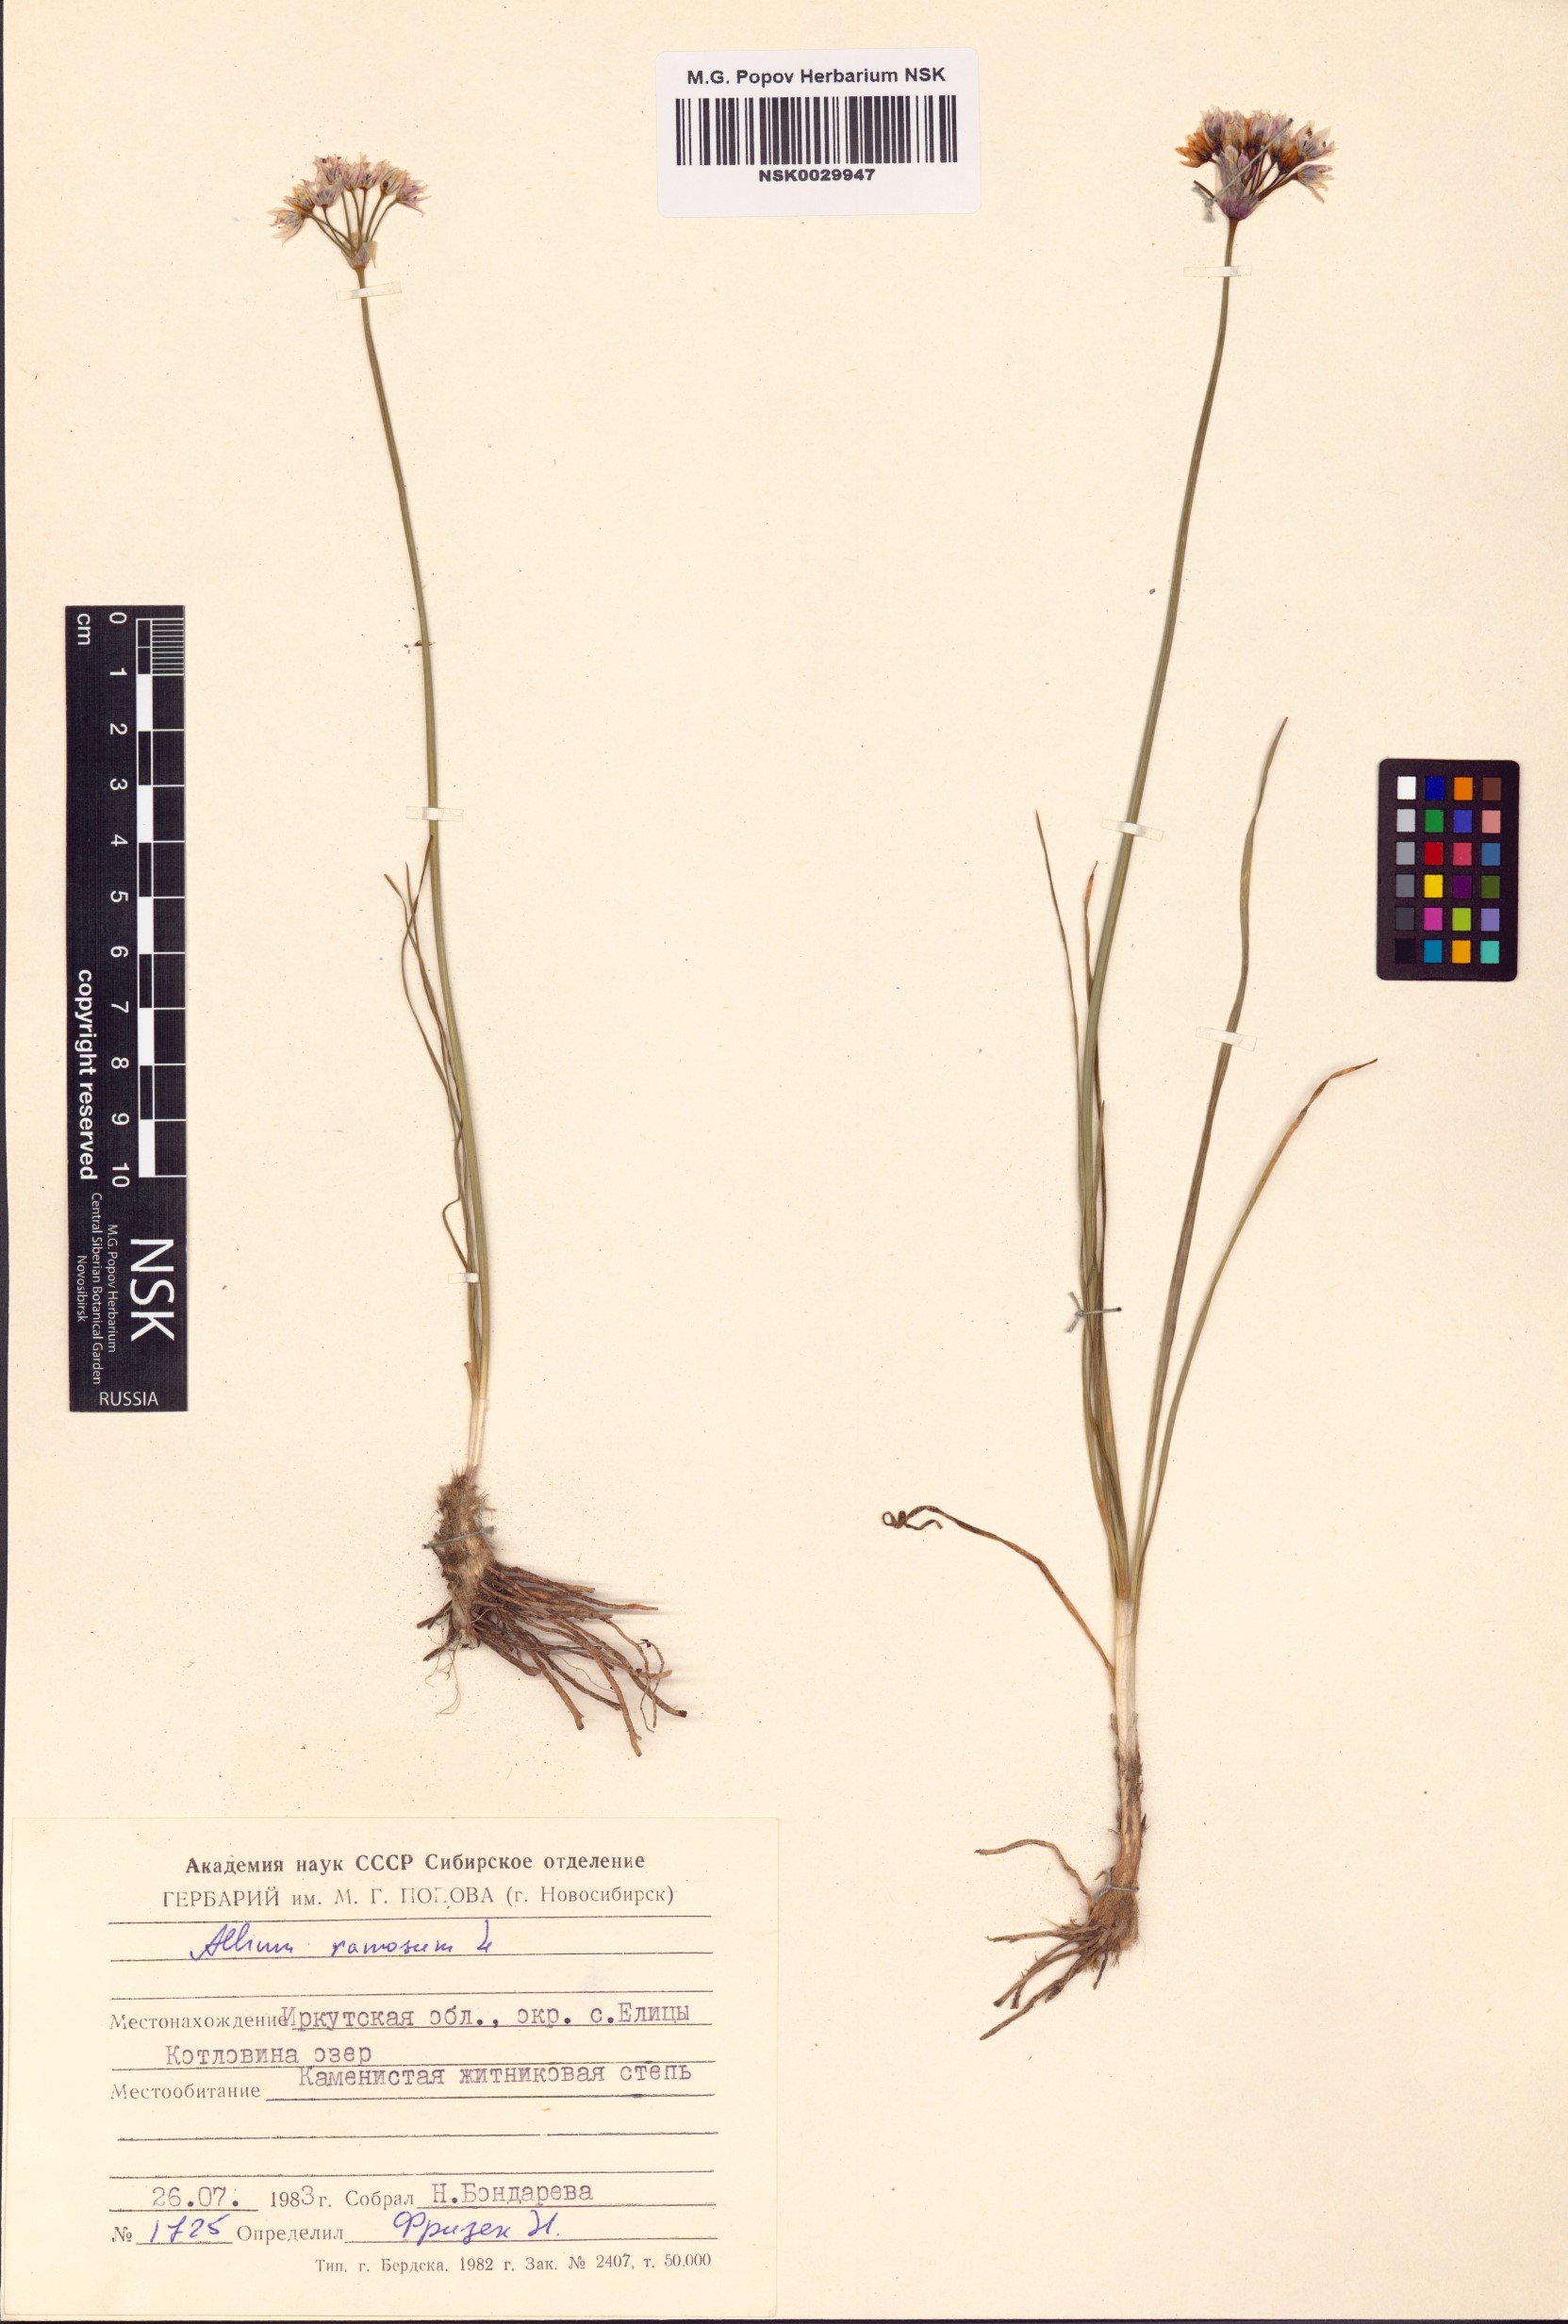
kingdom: Plantae
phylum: Tracheophyta
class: Liliopsida
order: Asparagales
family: Amaryllidaceae
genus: Allium
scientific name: Allium ramosum
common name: Fragrant garlic
